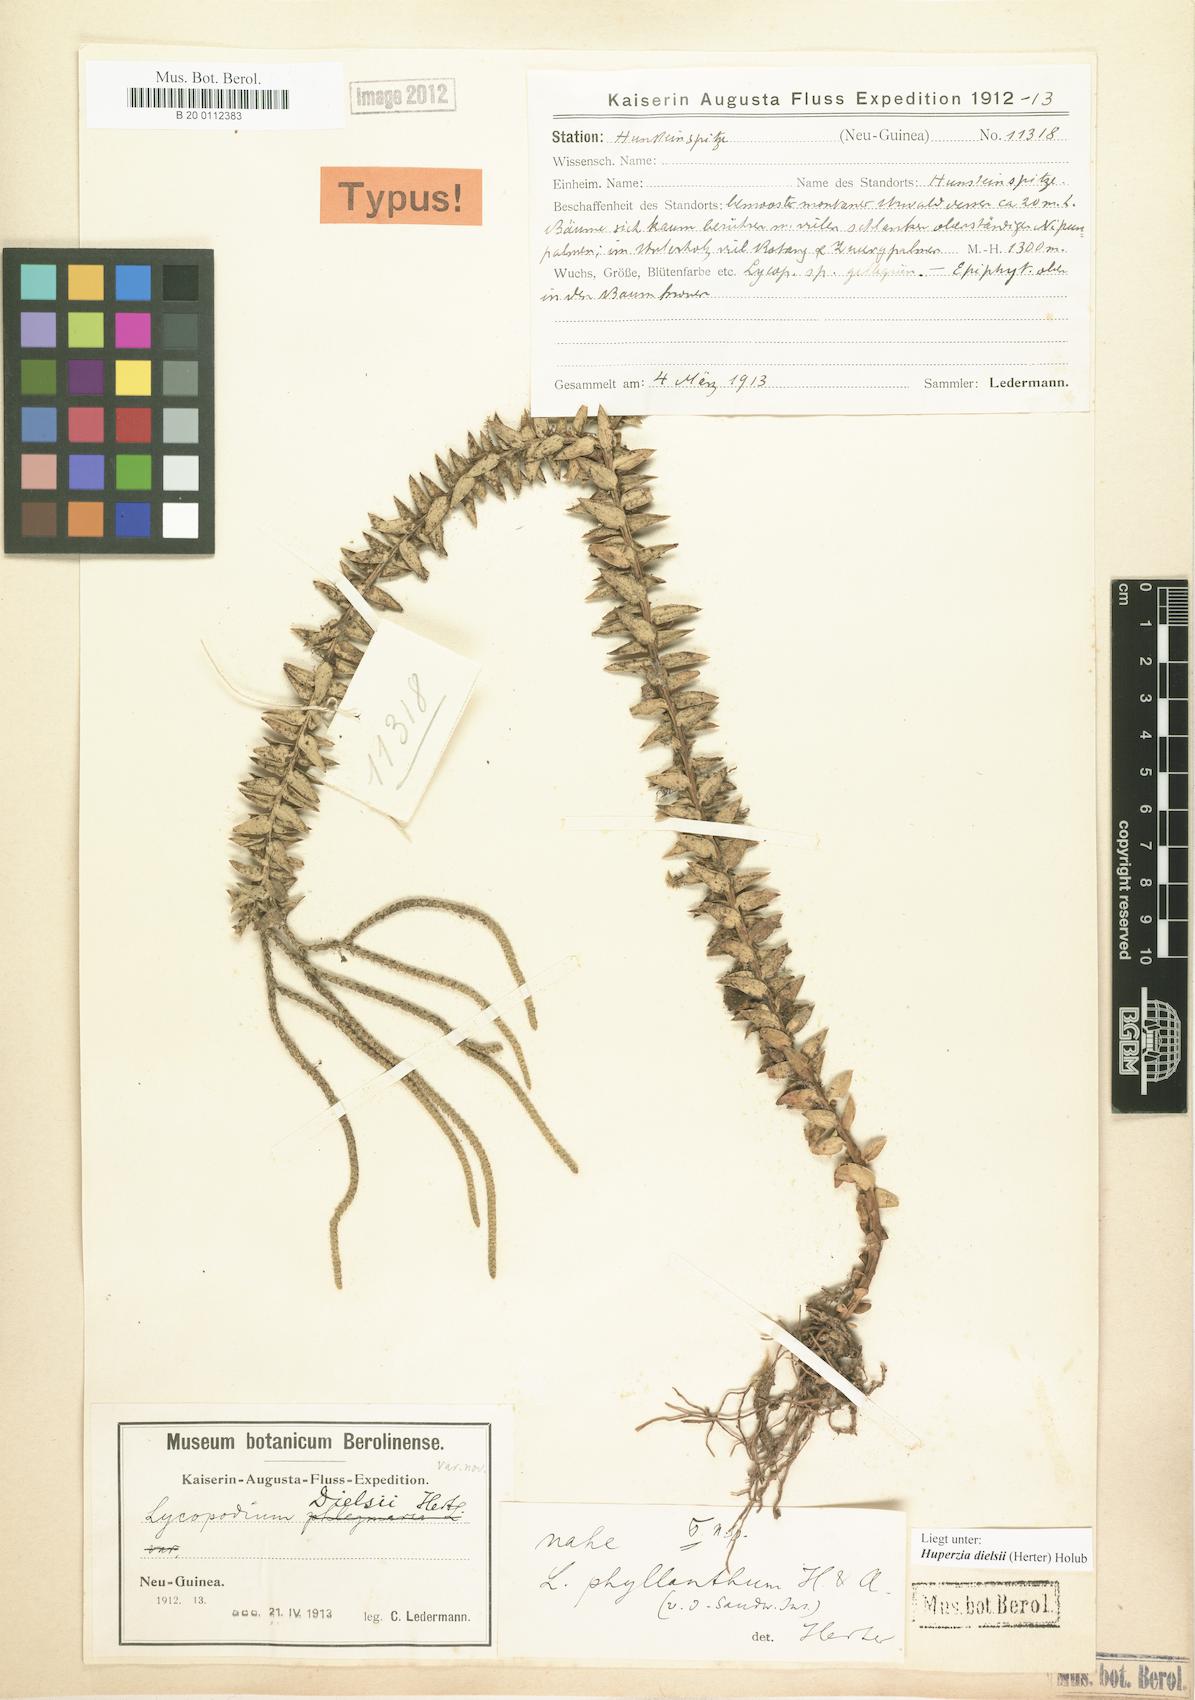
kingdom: Plantae
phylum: Tracheophyta
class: Lycopodiopsida
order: Lycopodiales
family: Lycopodiaceae
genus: Phlegmariurus
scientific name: Phlegmariurus dielsii
